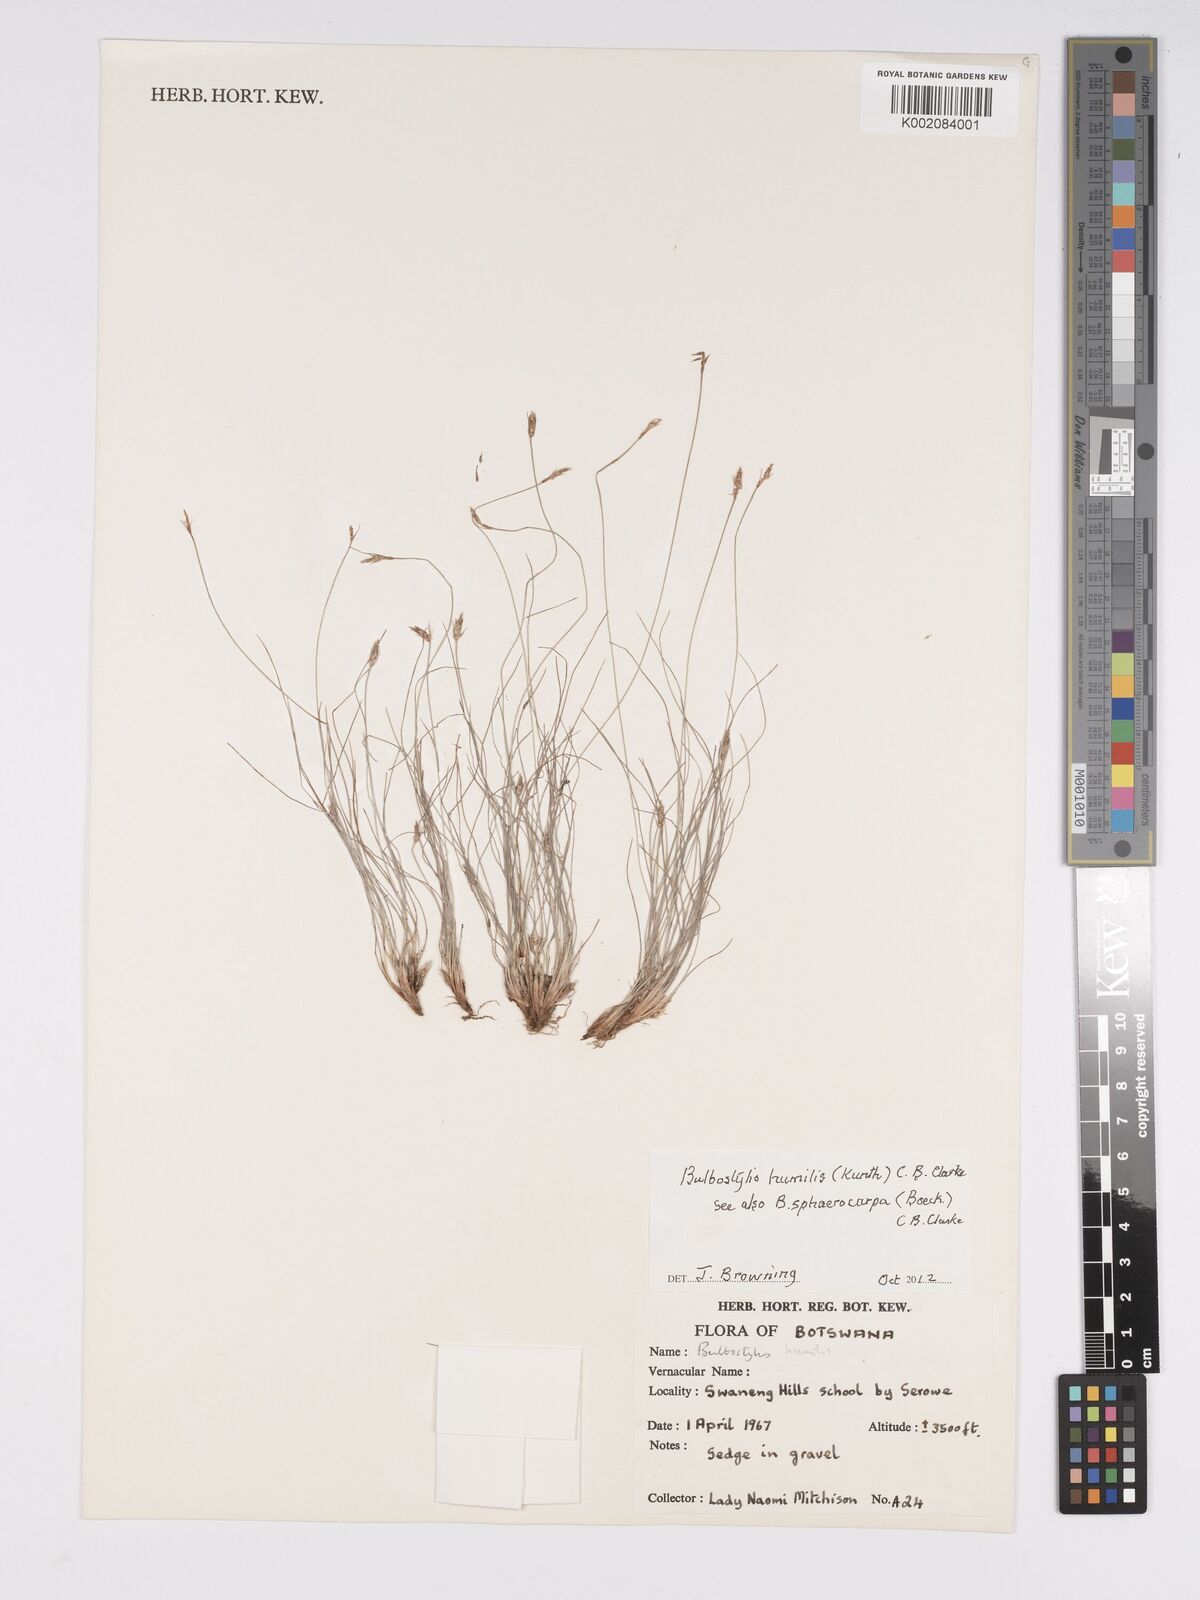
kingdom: Plantae
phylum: Tracheophyta
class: Liliopsida
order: Poales
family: Cyperaceae
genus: Bulbostylis
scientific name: Bulbostylis humilis
